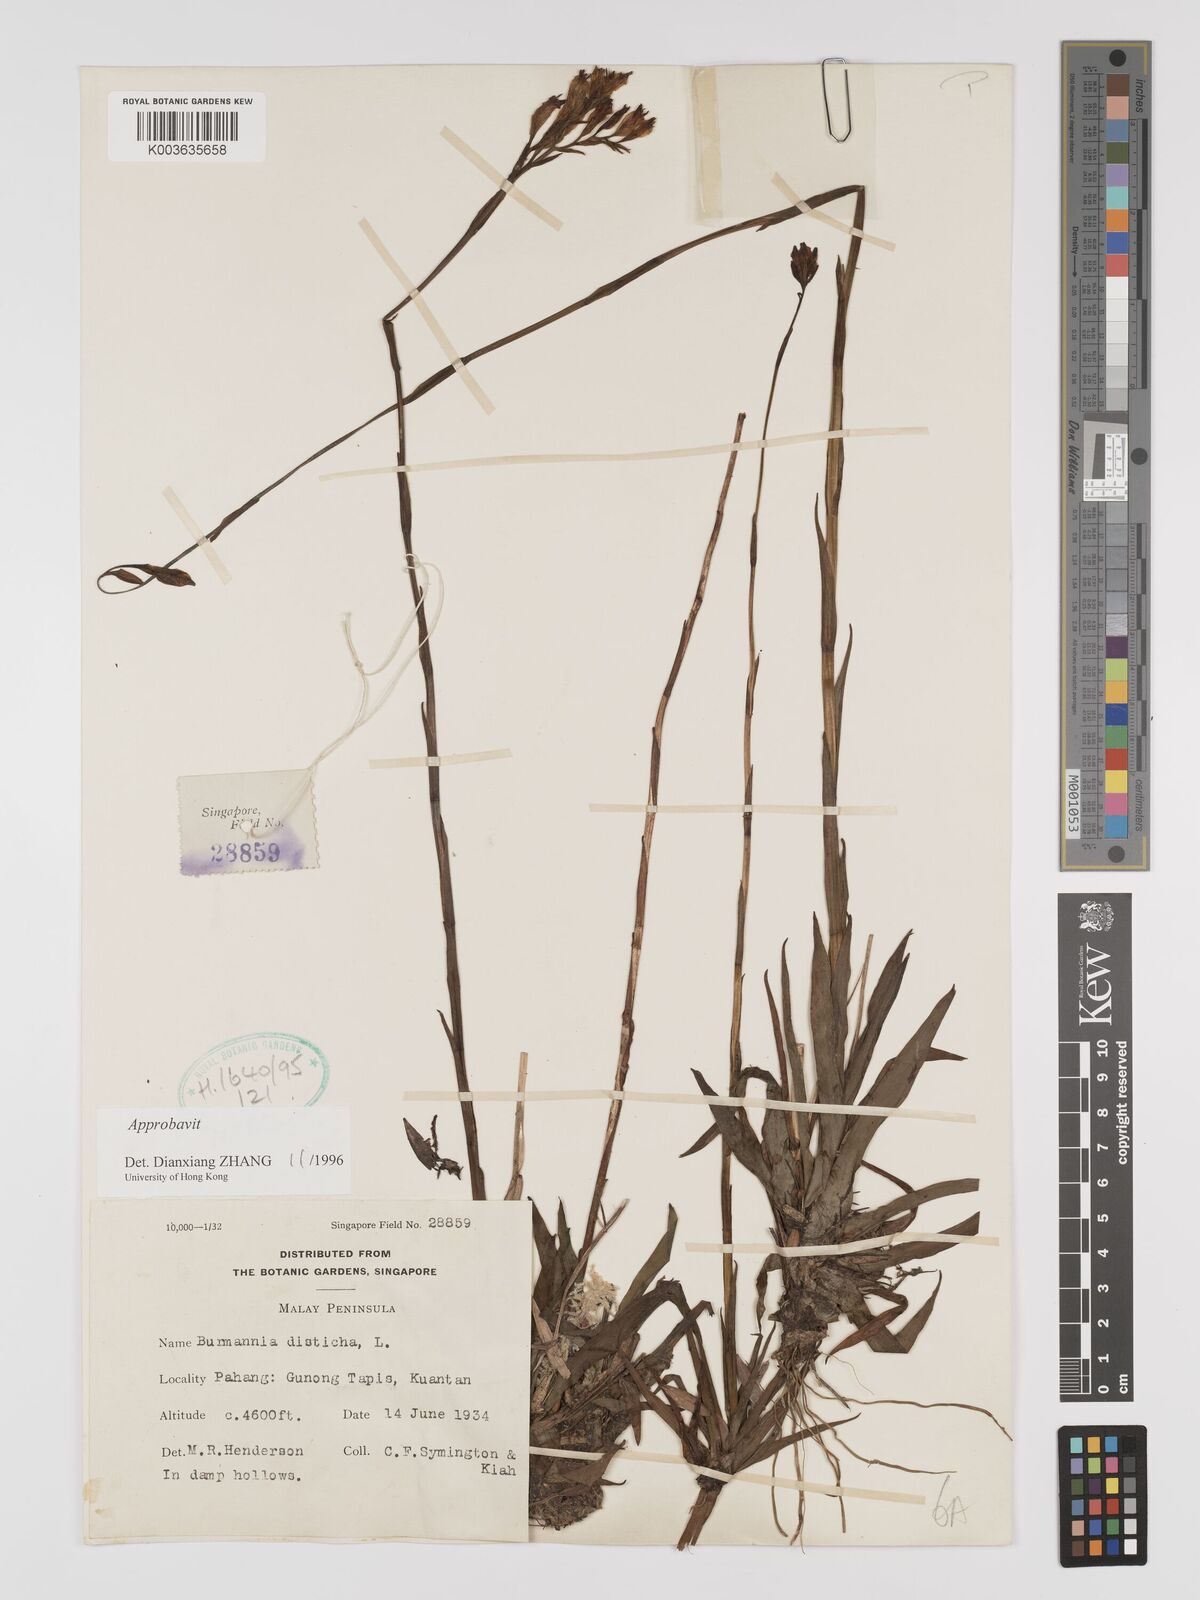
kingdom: Plantae
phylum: Tracheophyta
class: Liliopsida
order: Dioscoreales
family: Burmanniaceae
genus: Burmannia
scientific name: Burmannia disticha
